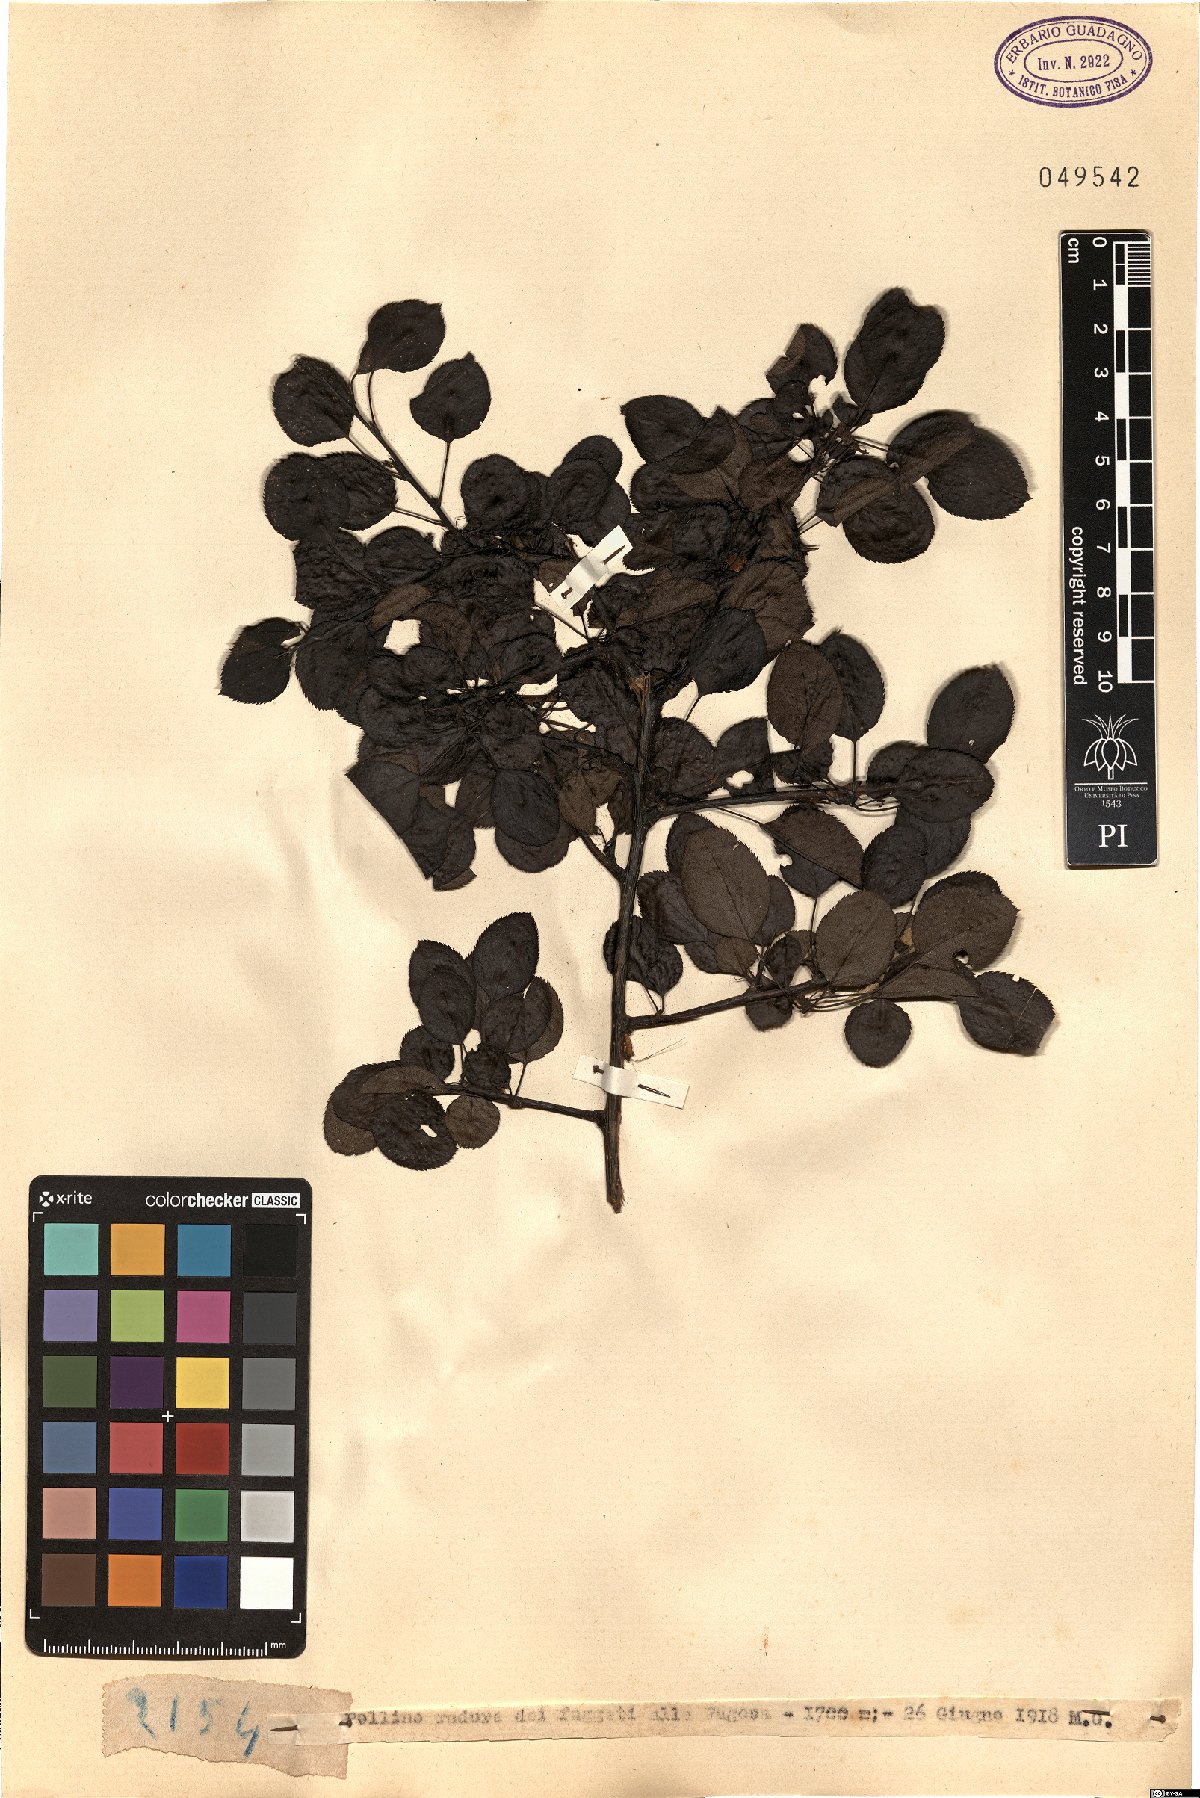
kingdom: Plantae
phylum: Tracheophyta
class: Magnoliopsida
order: Rosales
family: Rosaceae
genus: Amelanchier
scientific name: Amelanchier
